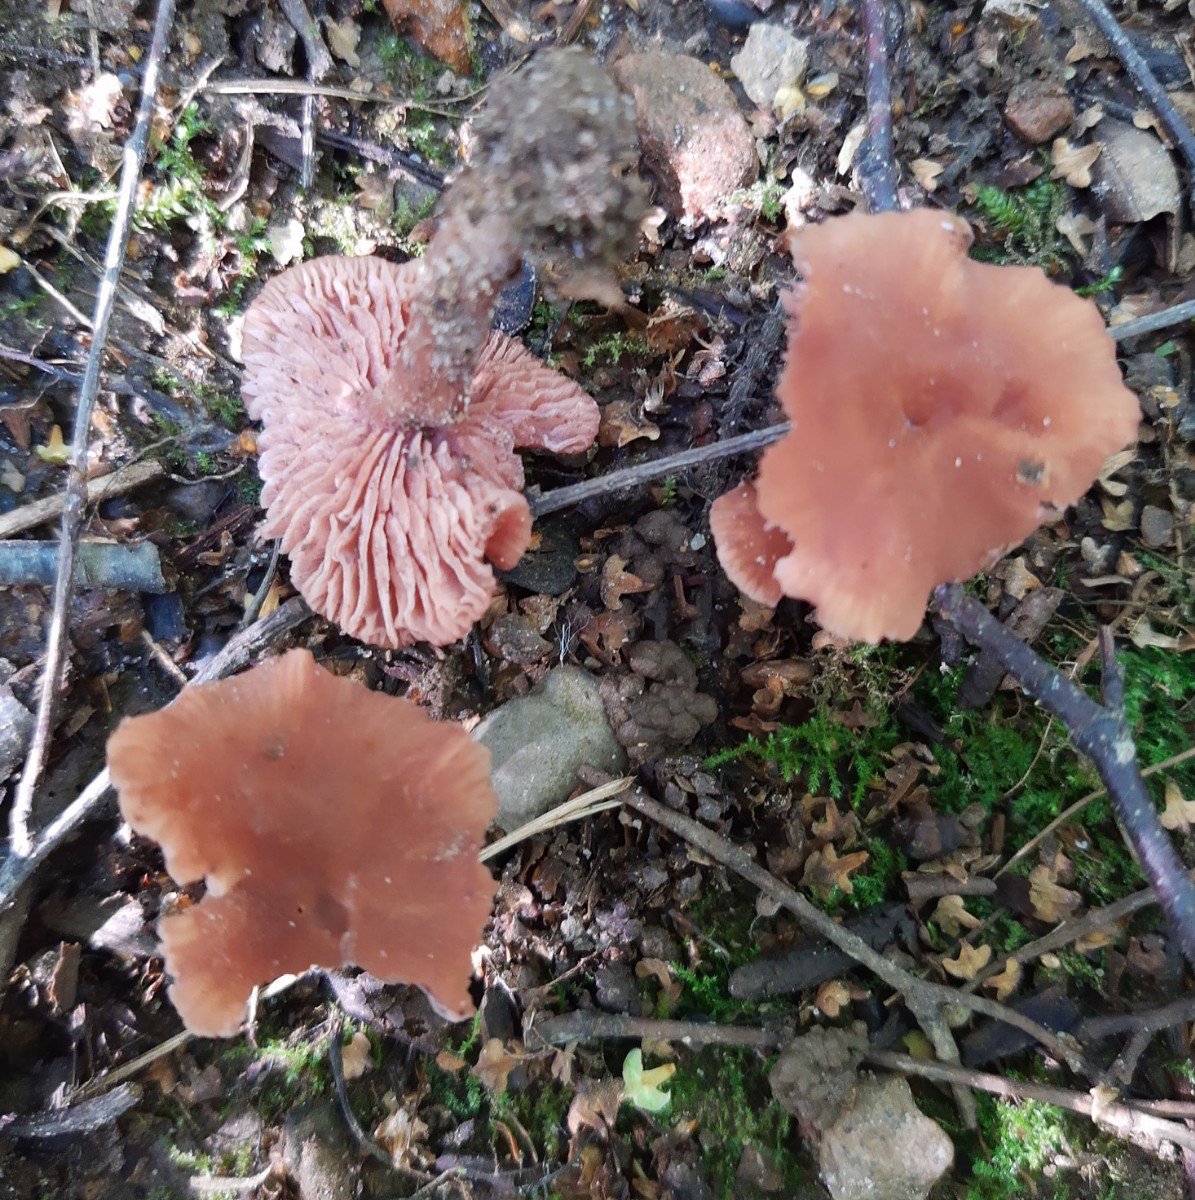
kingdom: Fungi
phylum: Basidiomycota
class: Agaricomycetes
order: Agaricales
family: Hydnangiaceae
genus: Laccaria
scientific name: Laccaria laccata
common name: rød ametysthat
